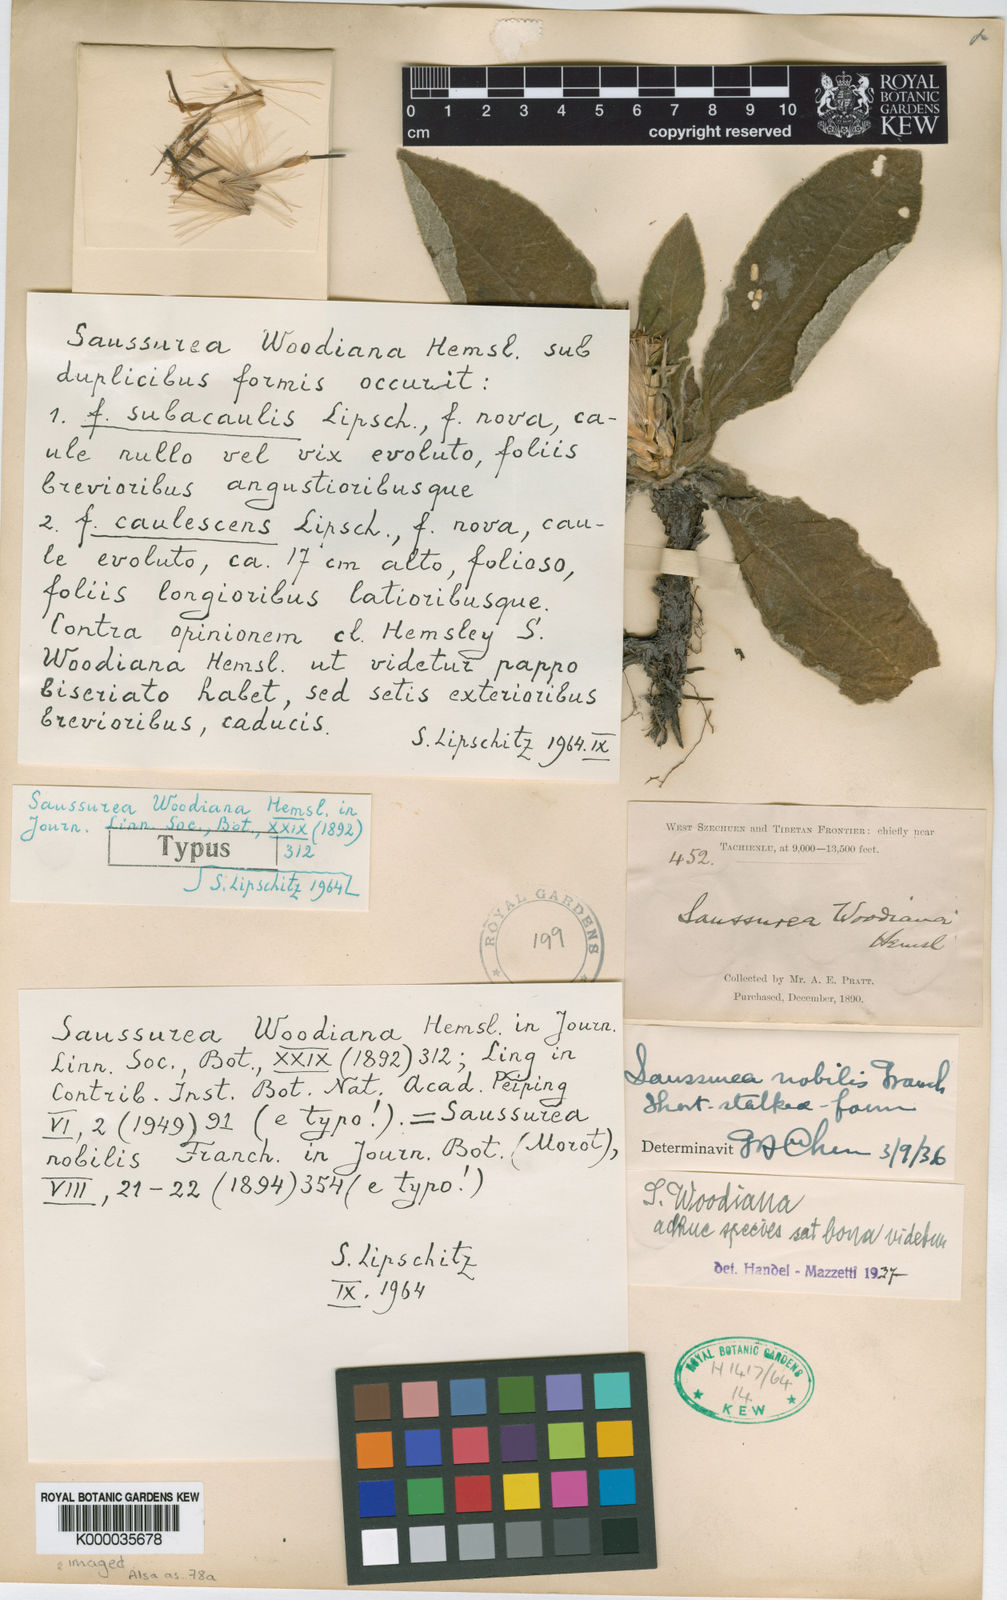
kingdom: Plantae
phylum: Tracheophyta
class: Magnoliopsida
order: Asterales
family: Asteraceae
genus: Saussurea
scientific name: Saussurea woodiana
